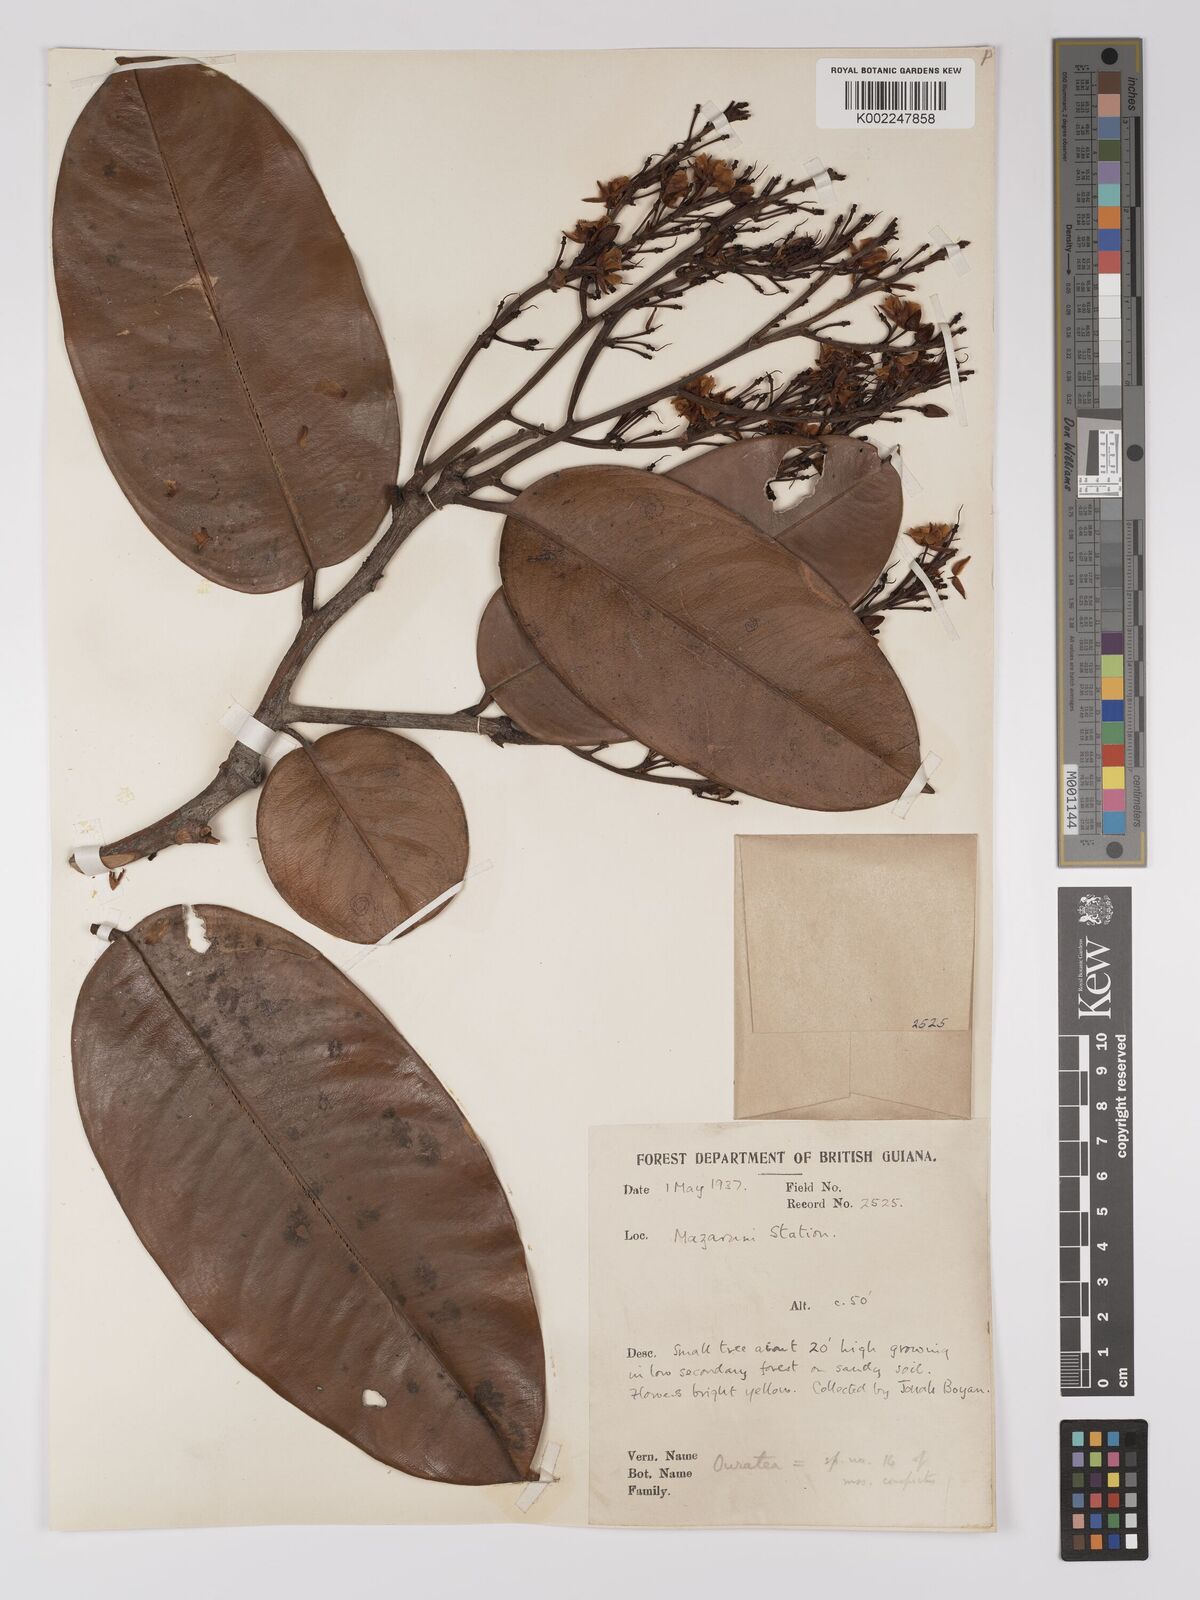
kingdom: Plantae
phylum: Tracheophyta
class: Magnoliopsida
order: Malpighiales
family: Ochnaceae
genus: Ouratea
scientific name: Ouratea
